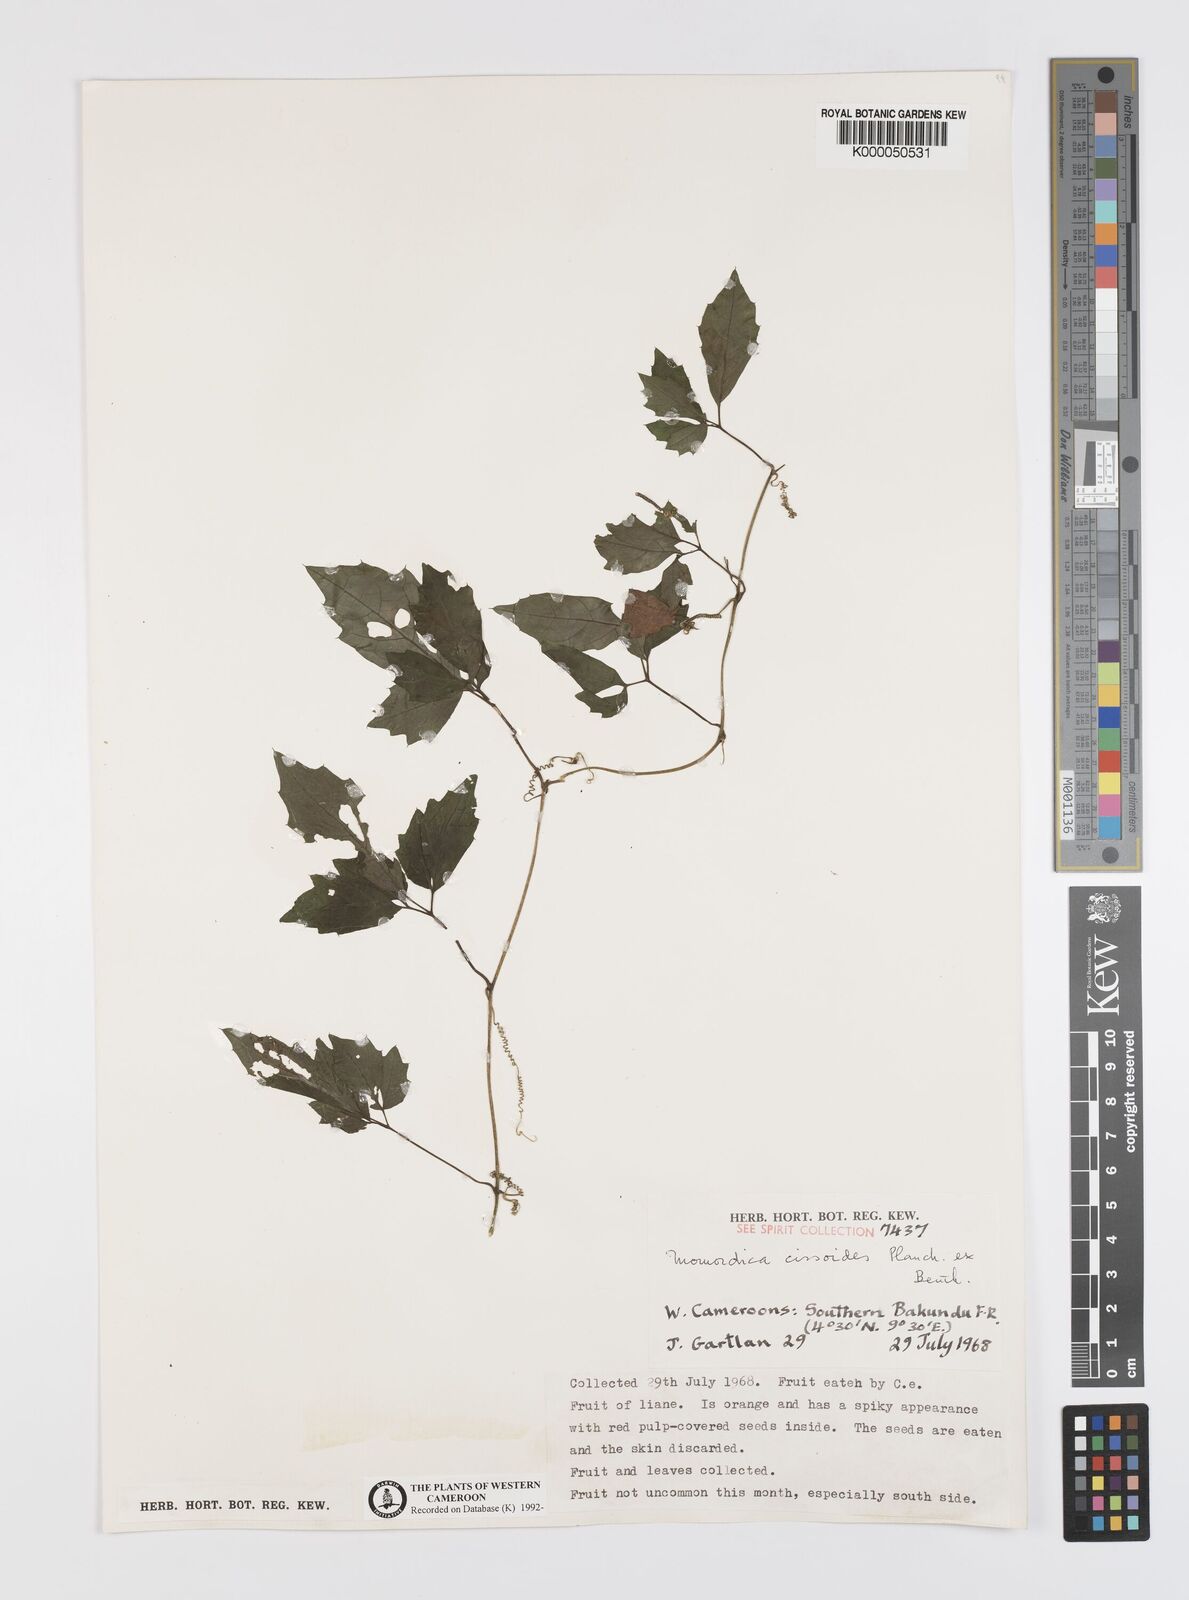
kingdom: Plantae
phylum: Tracheophyta
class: Magnoliopsida
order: Cucurbitales
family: Cucurbitaceae
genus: Momordica
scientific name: Momordica cissoides
